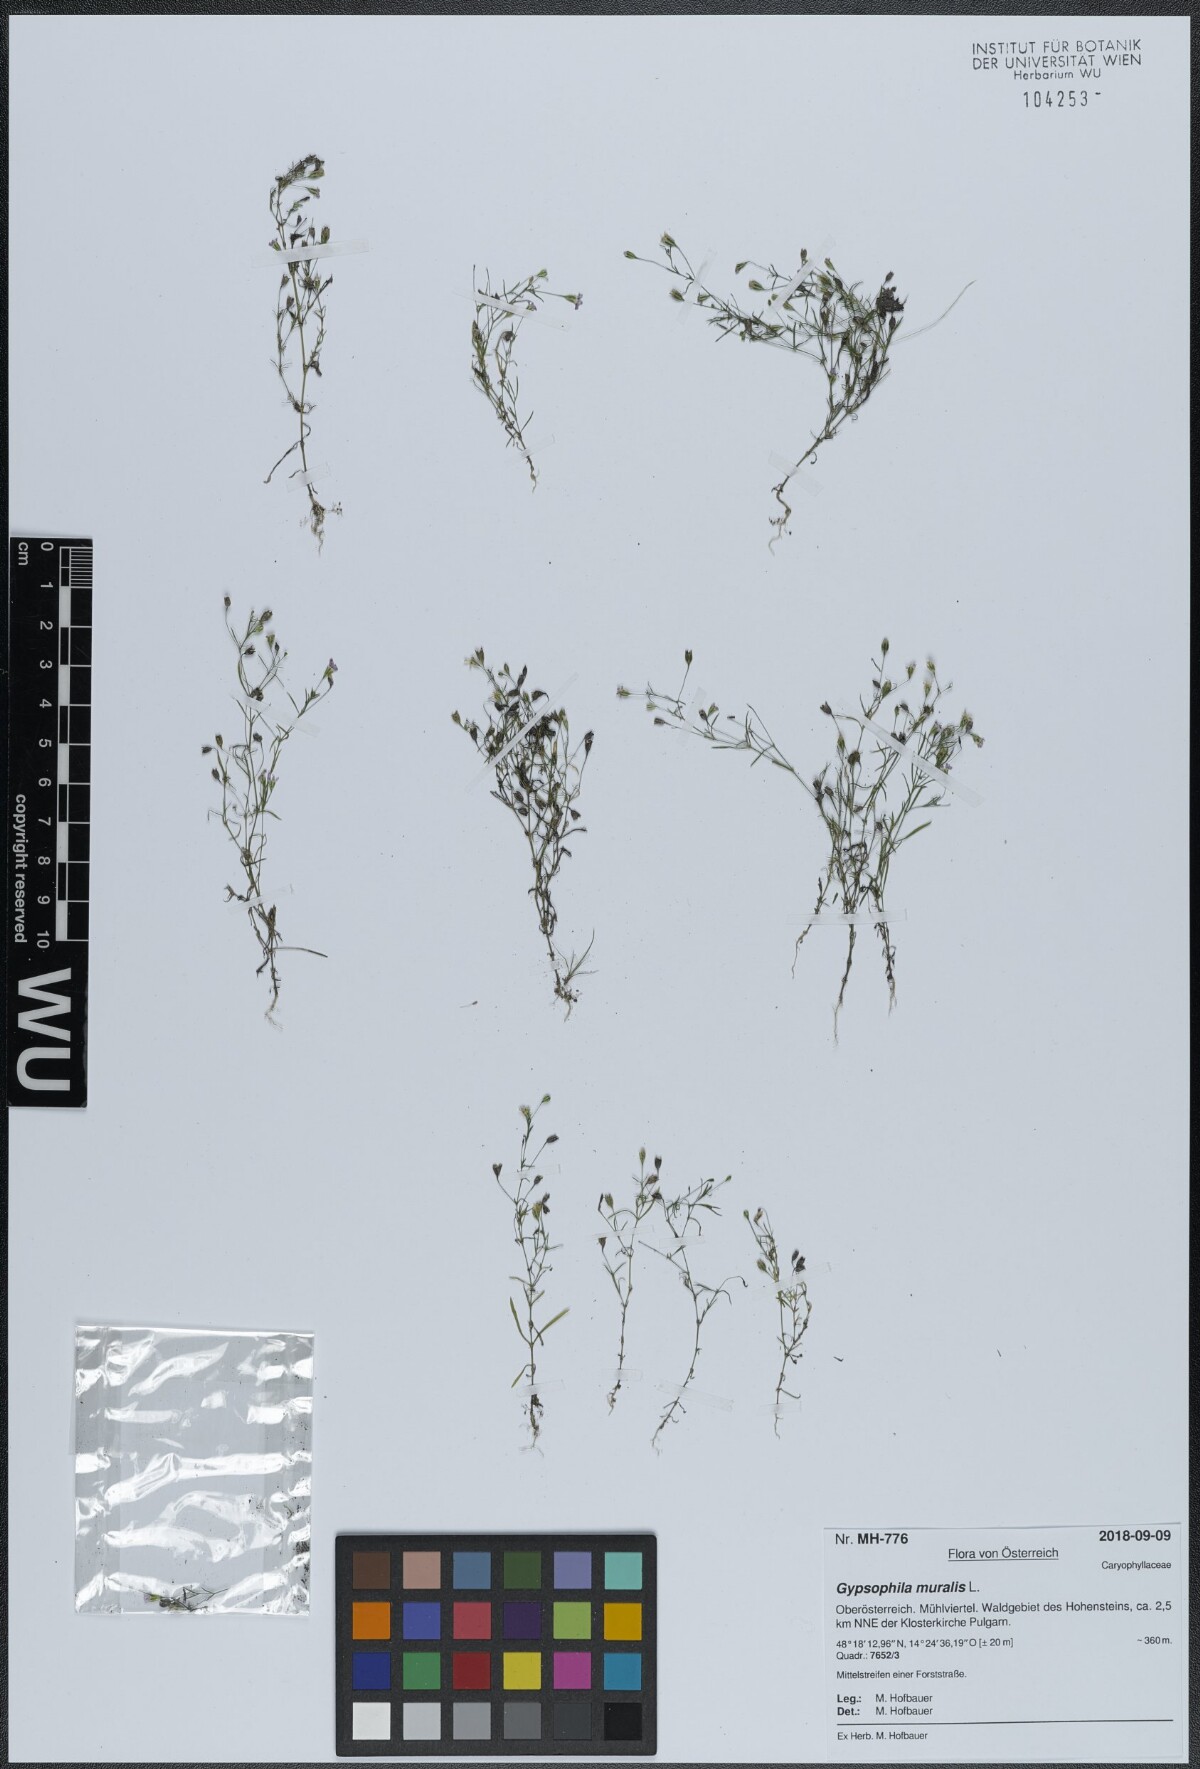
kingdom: Plantae
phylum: Tracheophyta
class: Magnoliopsida
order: Caryophyllales
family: Caryophyllaceae
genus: Psammophiliella
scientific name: Psammophiliella muralis
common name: Cushion baby's-breath
